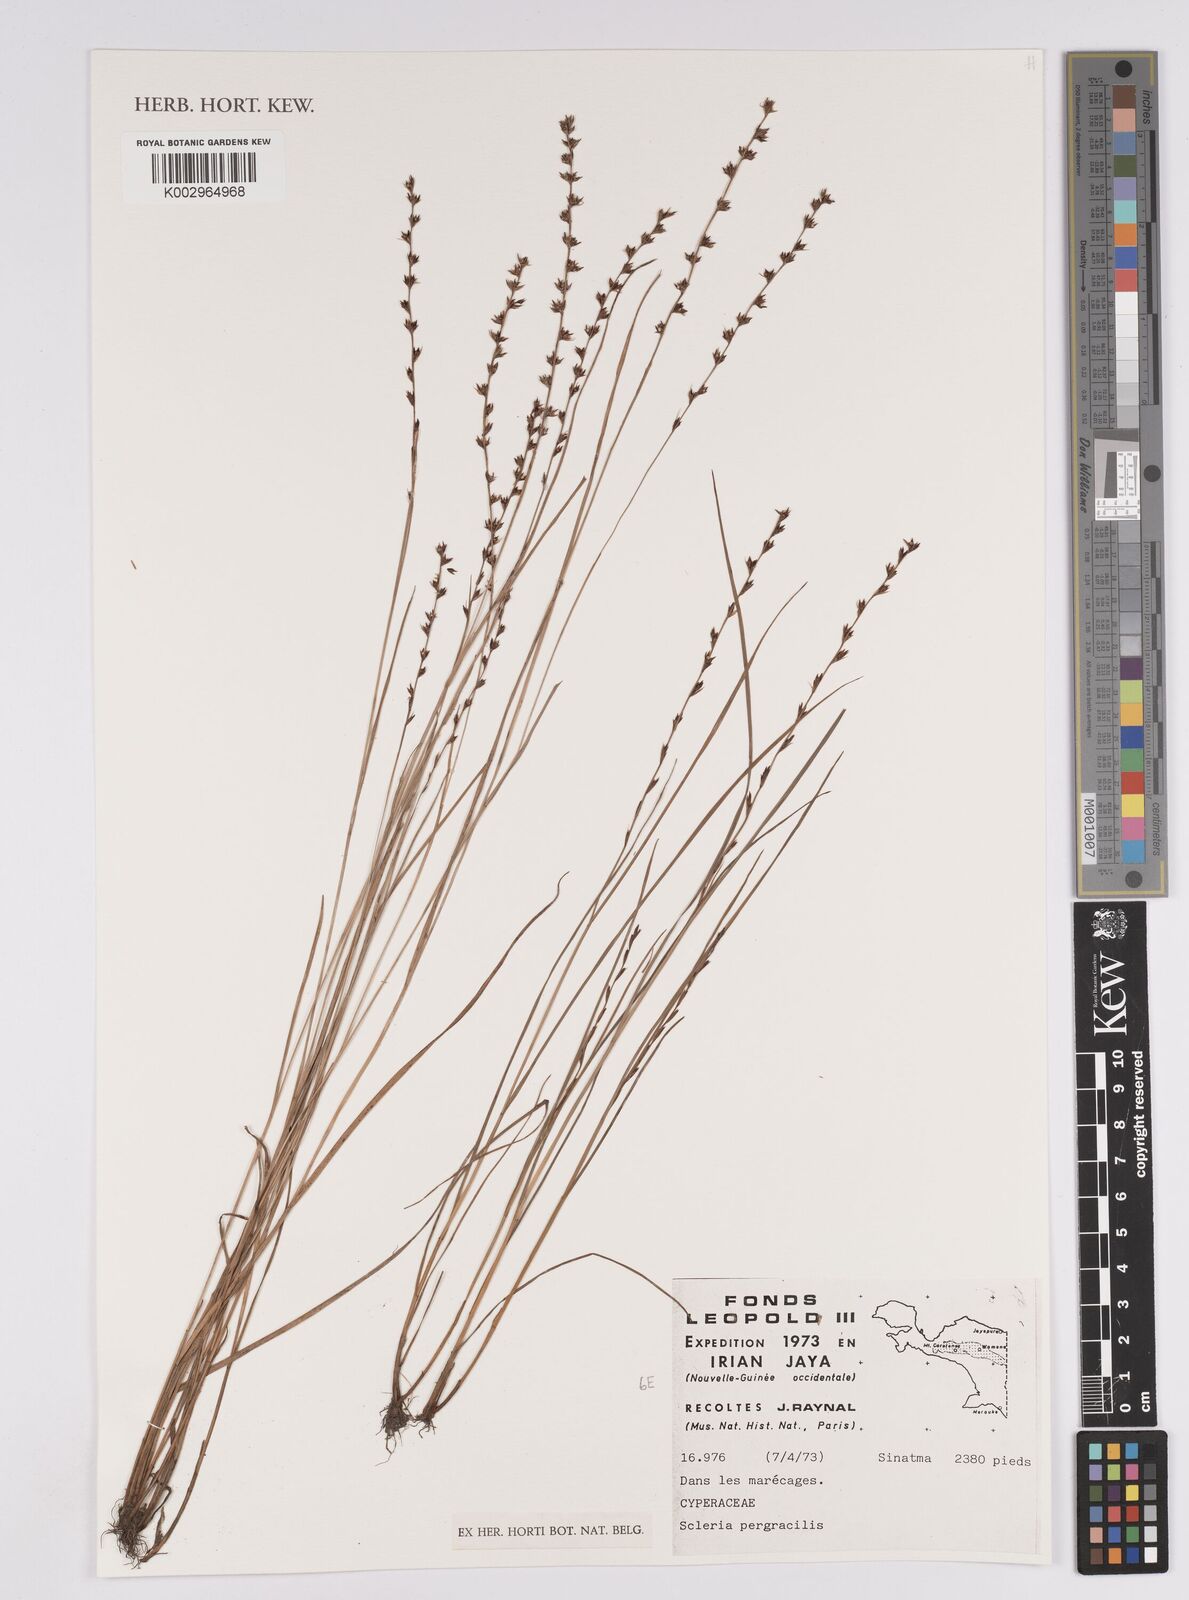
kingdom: Plantae
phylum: Tracheophyta
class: Liliopsida
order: Poales
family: Cyperaceae
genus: Scleria
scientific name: Scleria pergracilis
